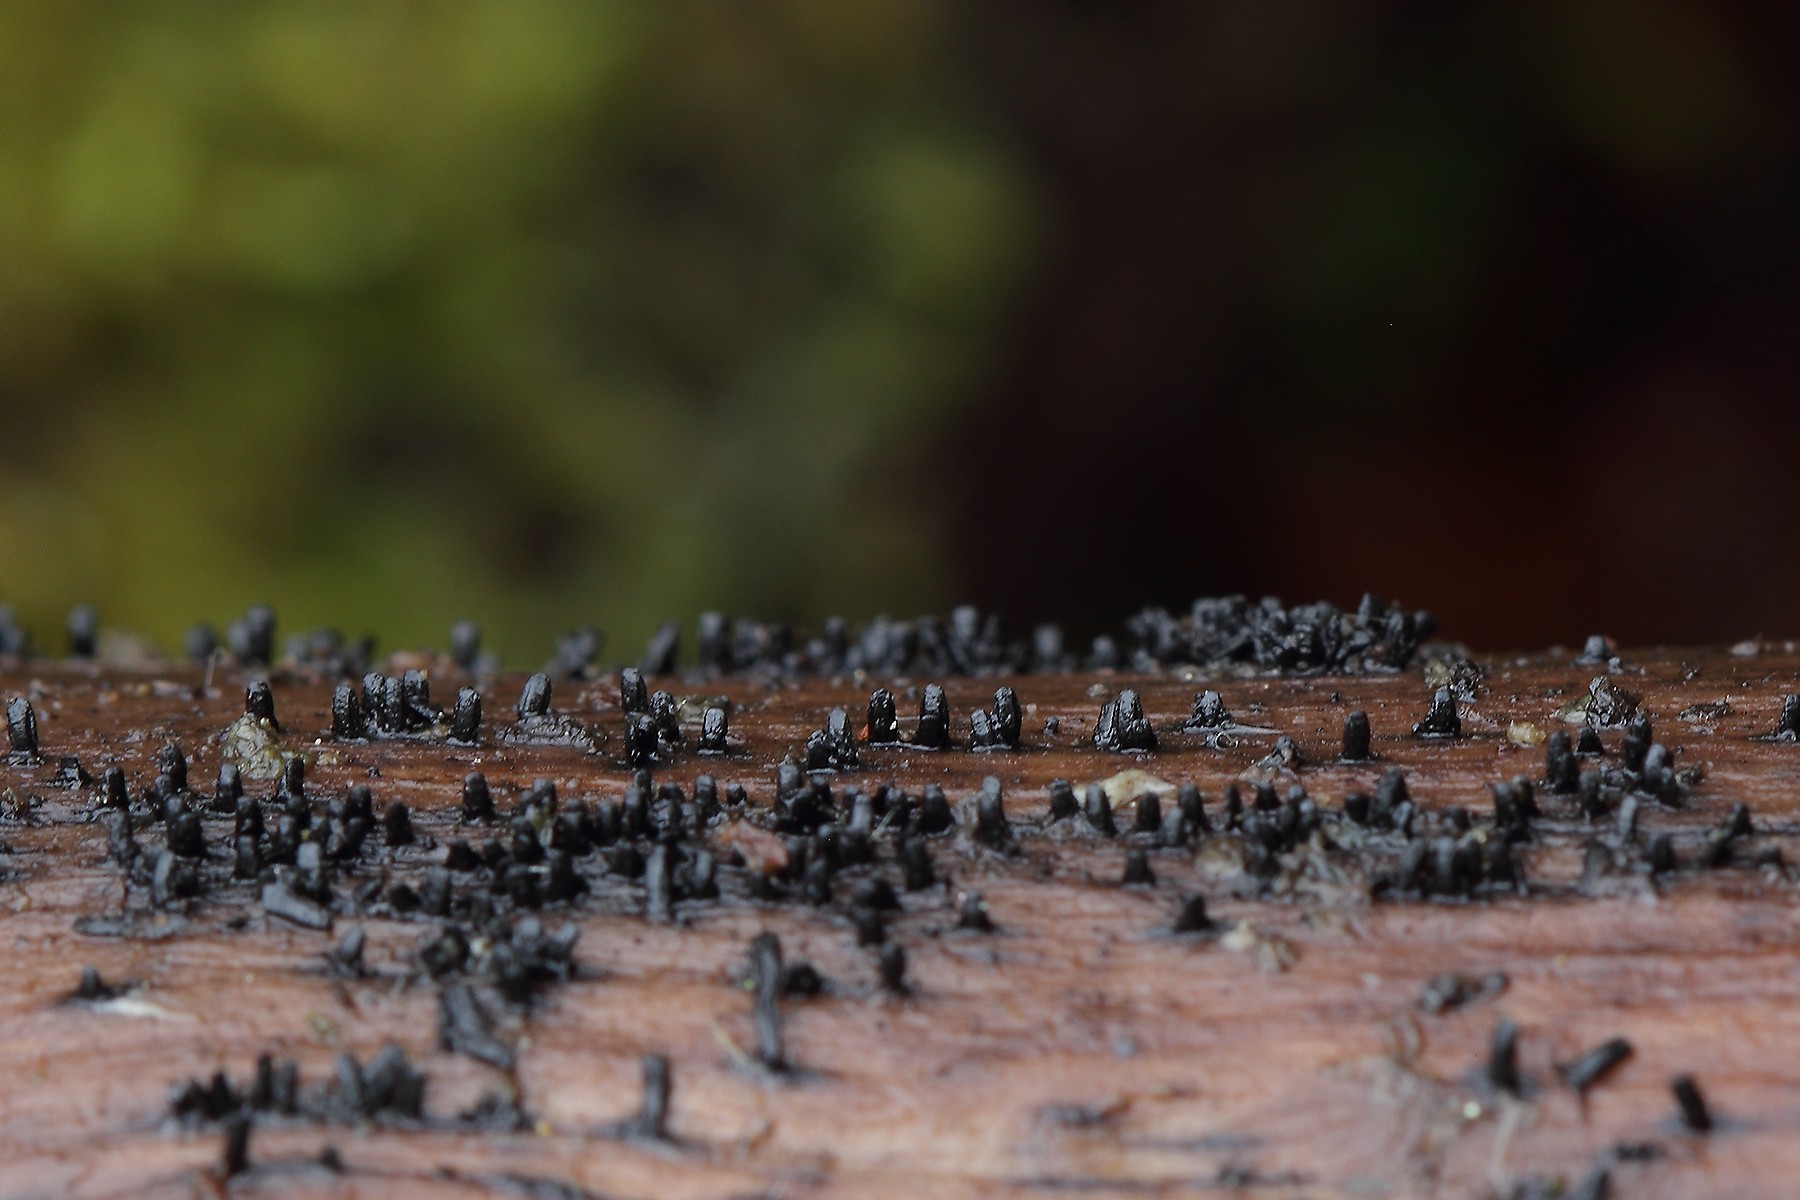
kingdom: Fungi
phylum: Ascomycota
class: Eurotiomycetes
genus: Glyphium
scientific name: Glyphium elatum
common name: kuløkse
